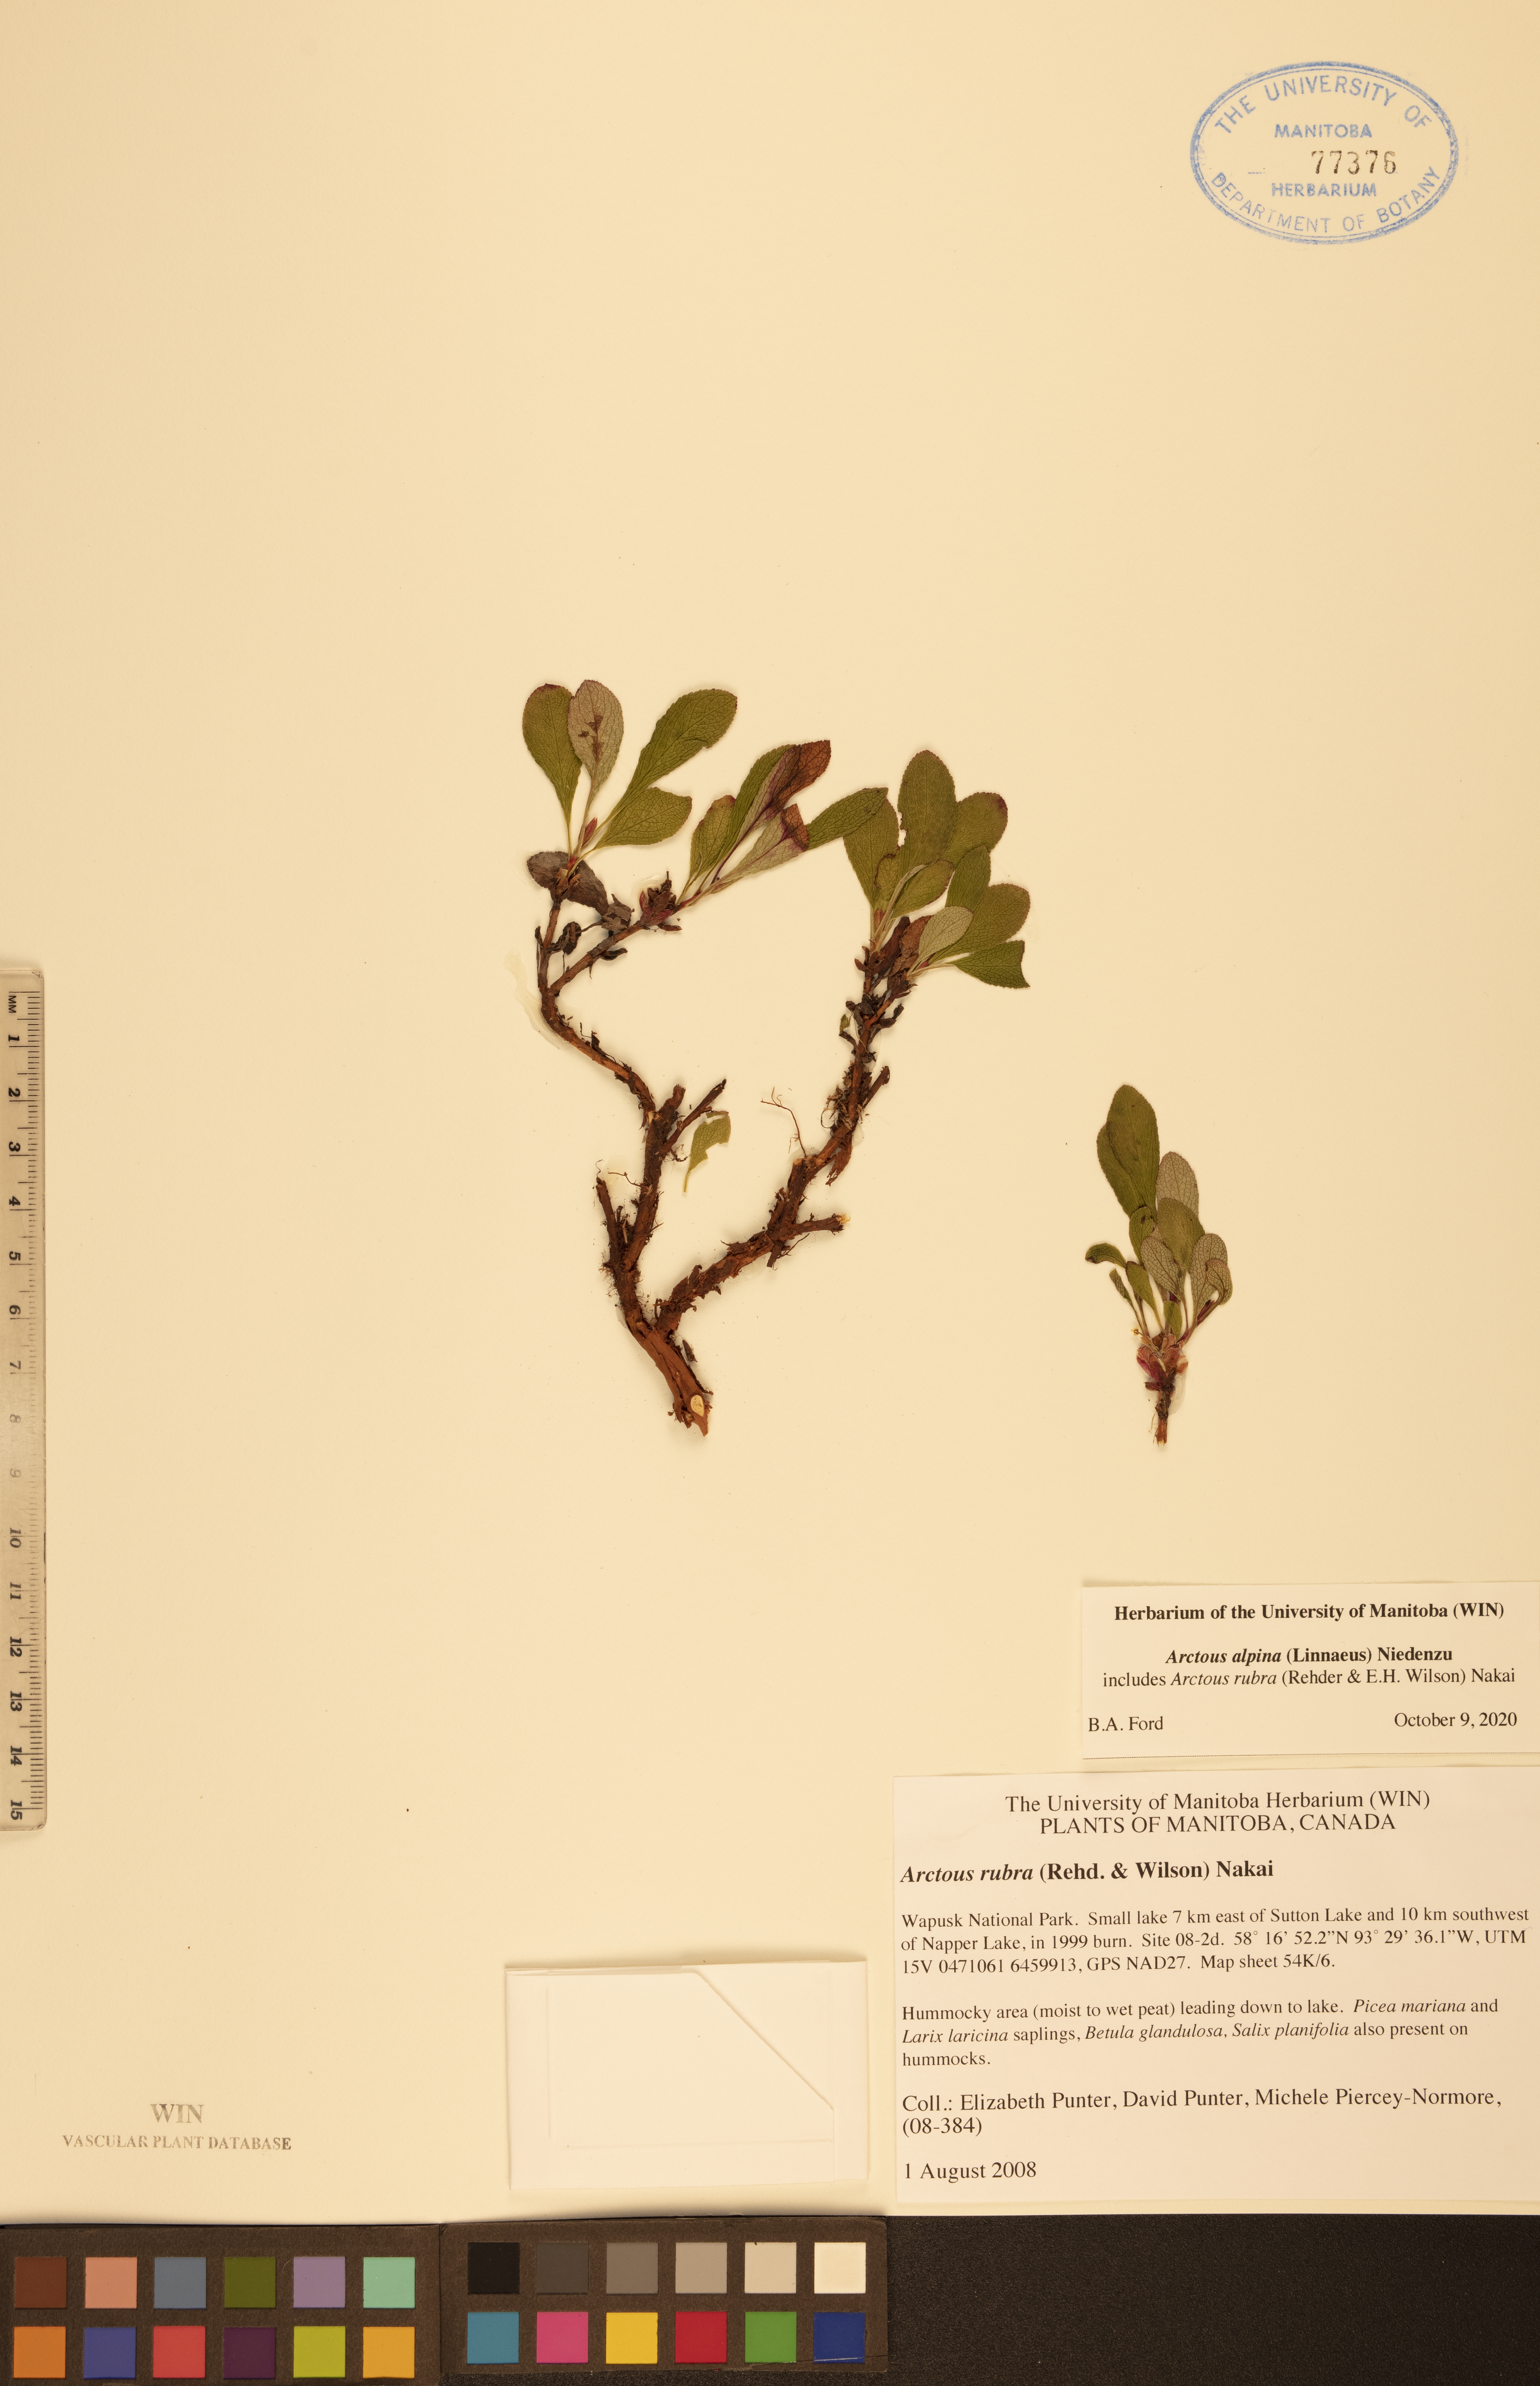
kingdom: Plantae
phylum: Tracheophyta
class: Magnoliopsida
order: Ericales
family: Ericaceae
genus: Arctostaphylos
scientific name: Arctostaphylos alpinus
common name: Alpine bearberry
